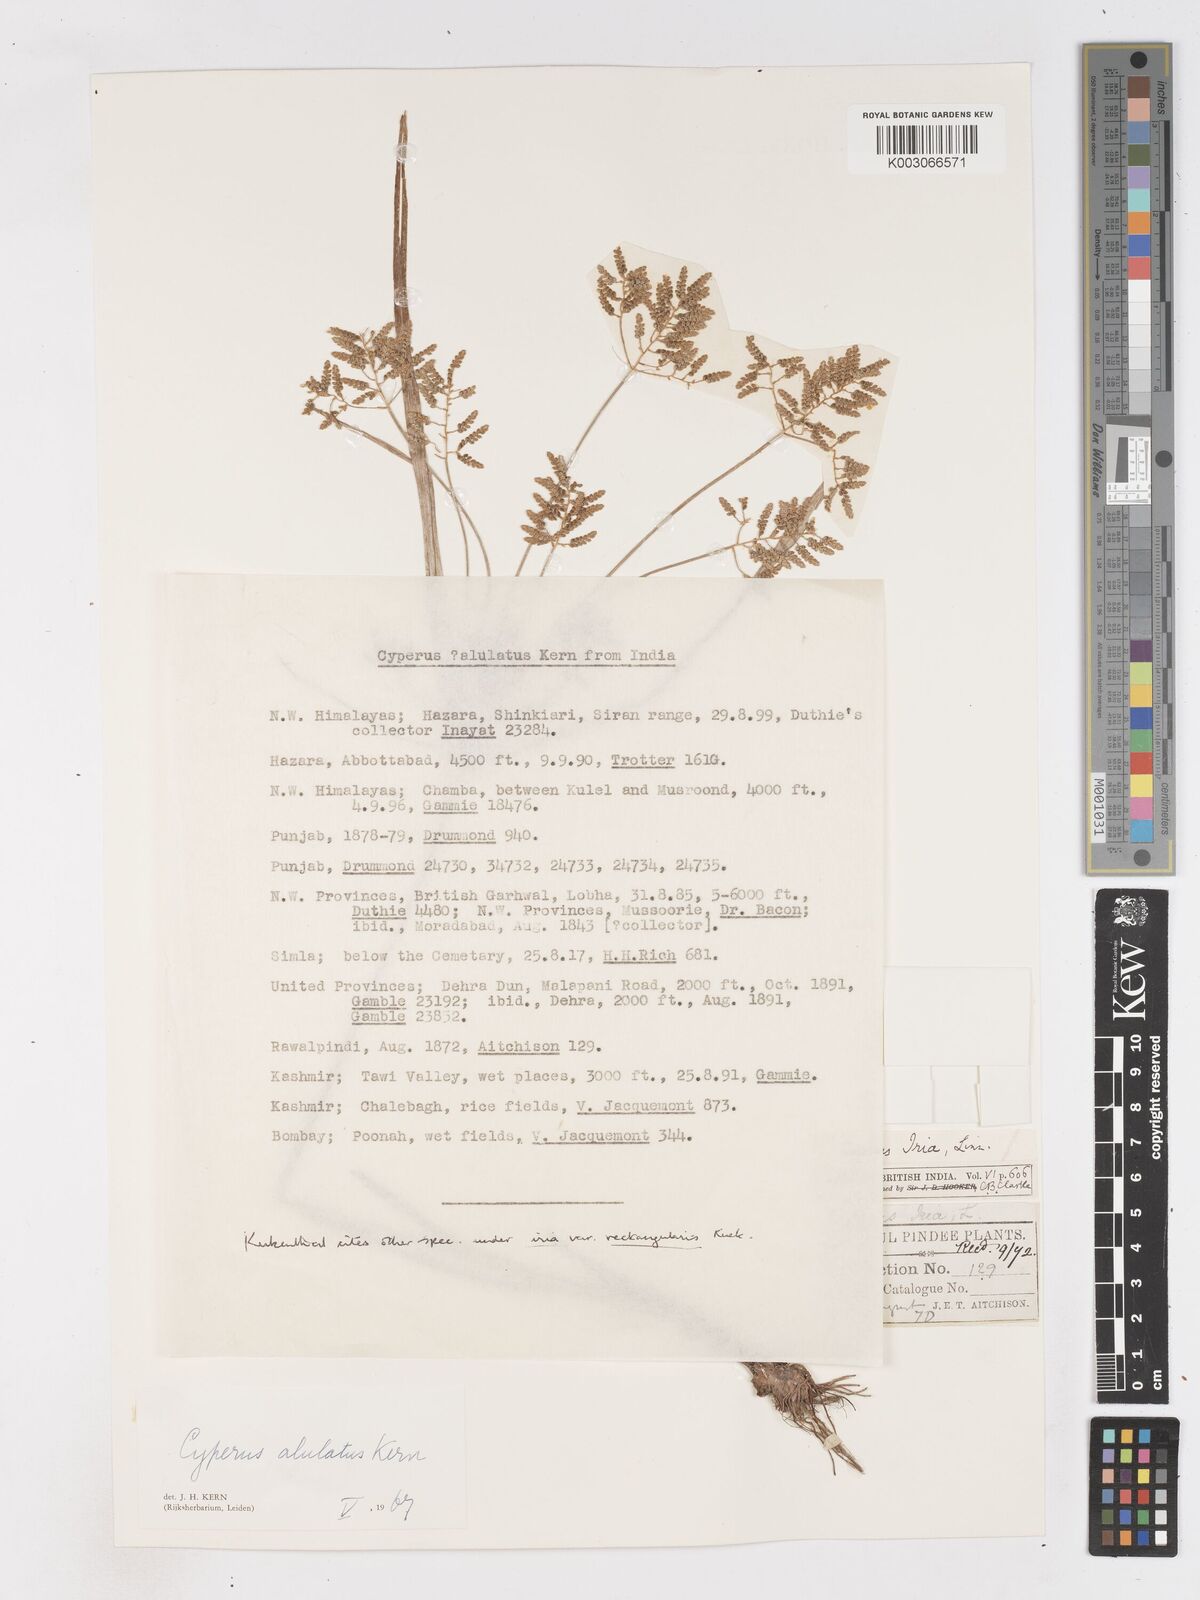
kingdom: Plantae
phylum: Tracheophyta
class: Liliopsida
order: Poales
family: Cyperaceae
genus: Cyperus
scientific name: Cyperus alulatus
